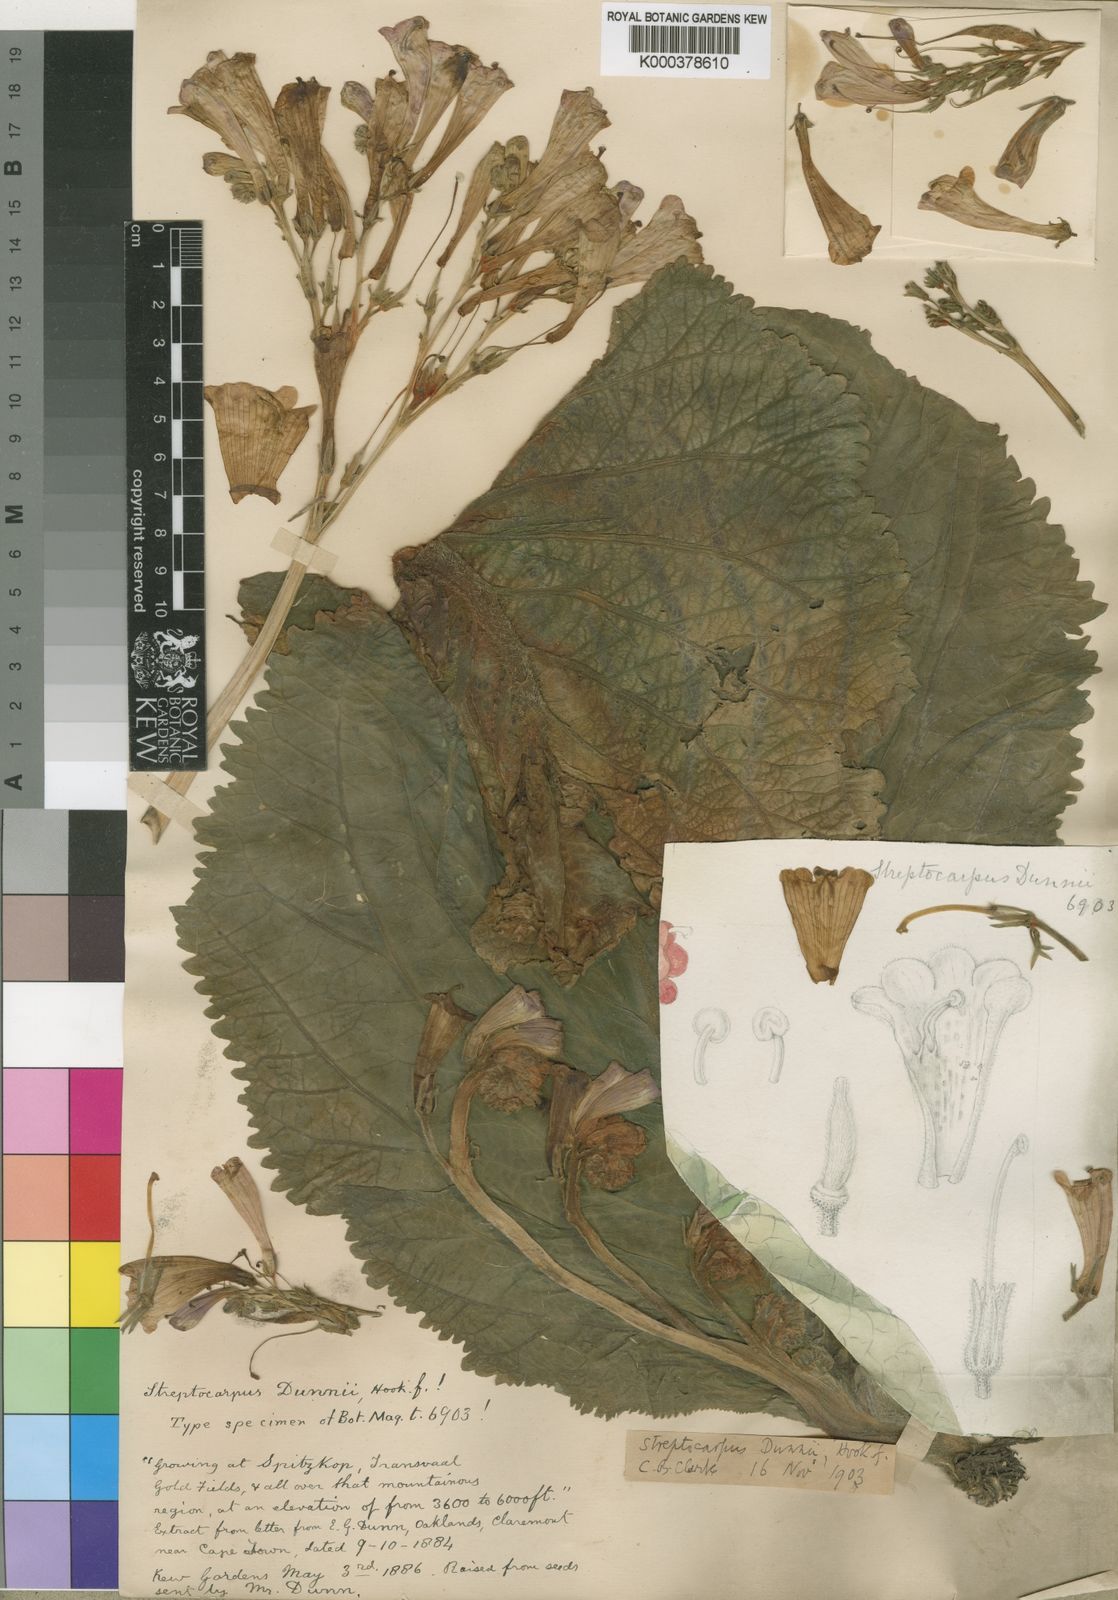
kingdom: Plantae
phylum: Tracheophyta
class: Magnoliopsida
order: Lamiales
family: Gesneriaceae
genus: Streptocarpus
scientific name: Streptocarpus
